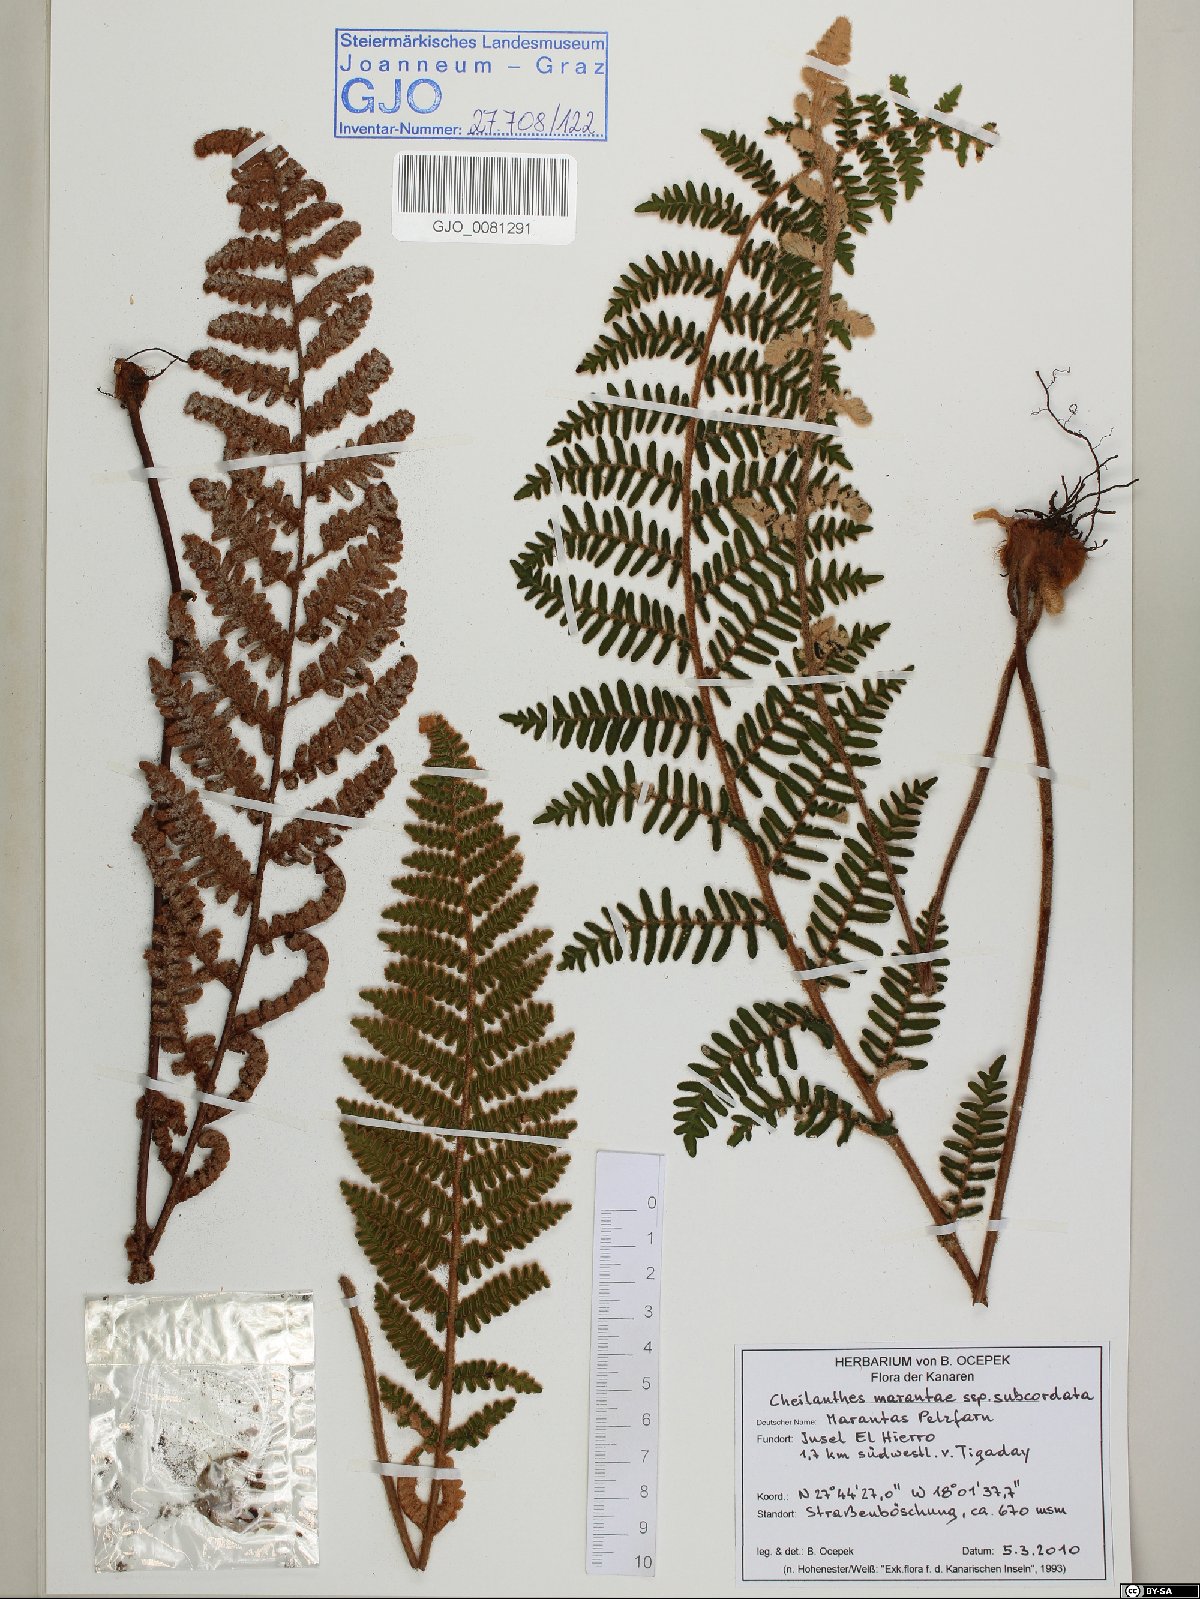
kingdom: Plantae
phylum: Tracheophyta
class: Polypodiopsida
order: Polypodiales
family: Pteridaceae
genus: Paragymnopteris
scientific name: Paragymnopteris marantae
